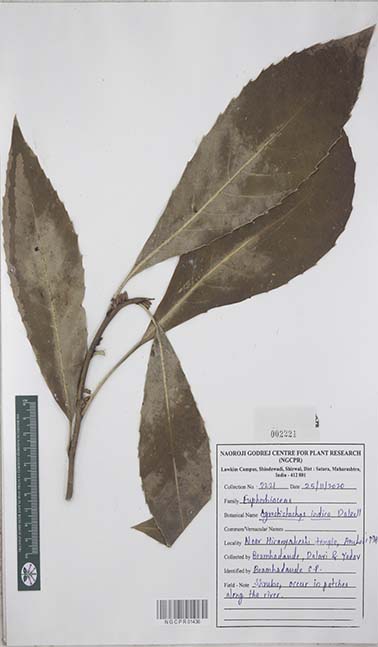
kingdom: Plantae
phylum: Tracheophyta
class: Magnoliopsida
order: Malpighiales
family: Euphorbiaceae
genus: Agrostistachys
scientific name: Agrostistachys indica
